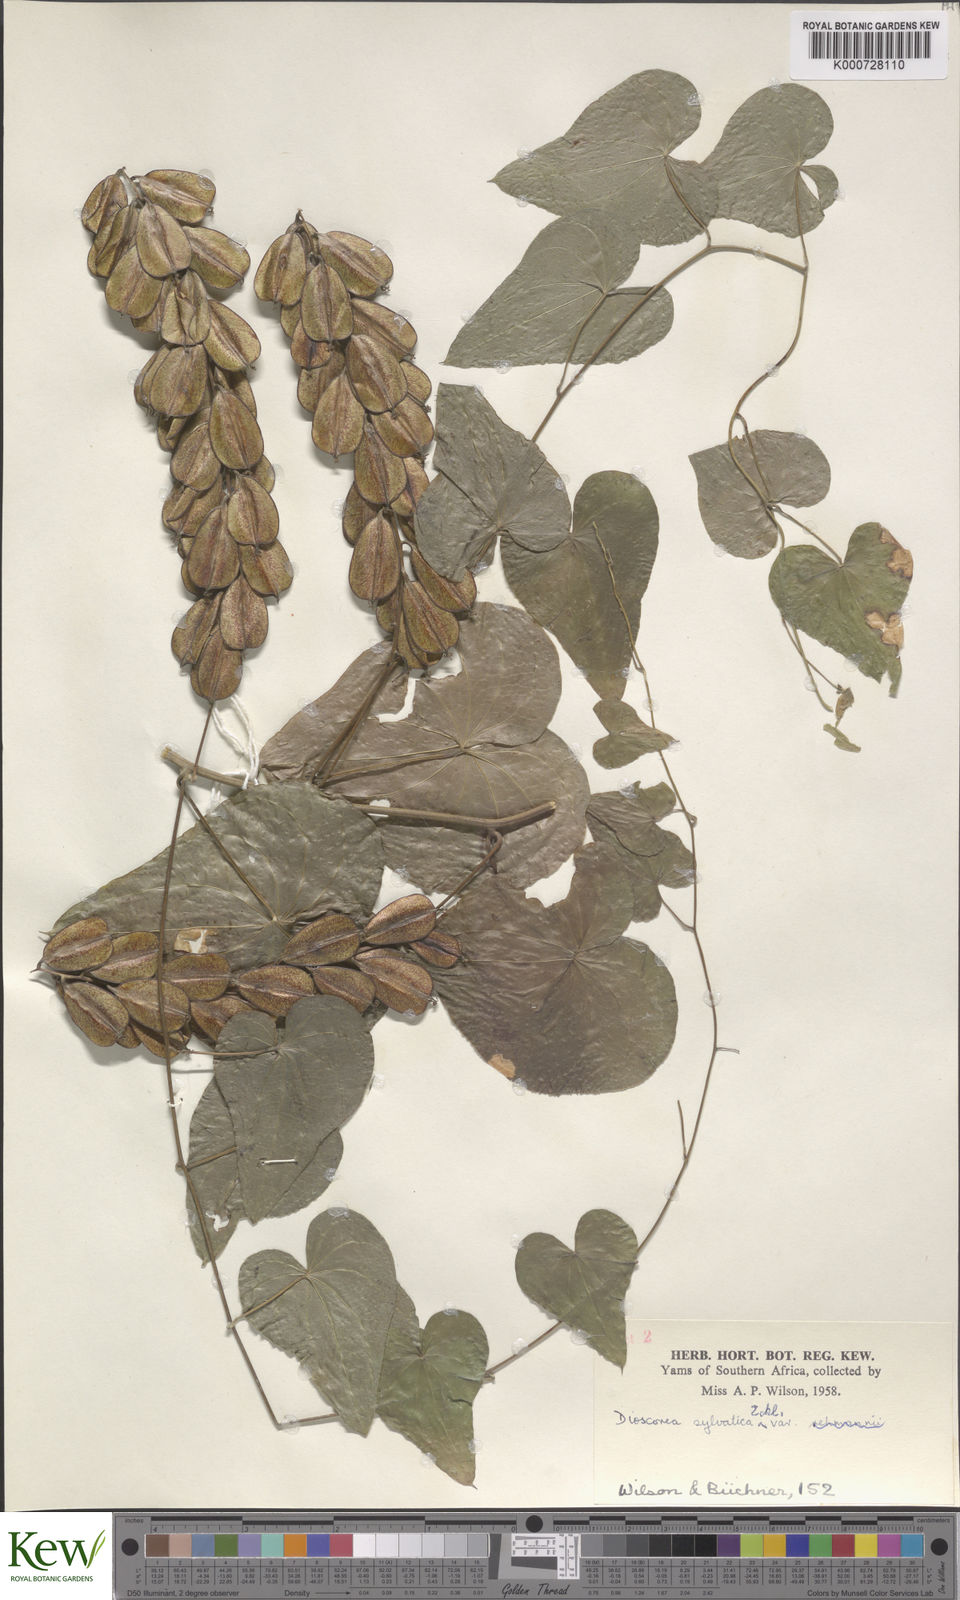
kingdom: Plantae
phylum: Tracheophyta
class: Liliopsida
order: Dioscoreales
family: Dioscoreaceae
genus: Dioscorea
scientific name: Dioscorea sylvatica
